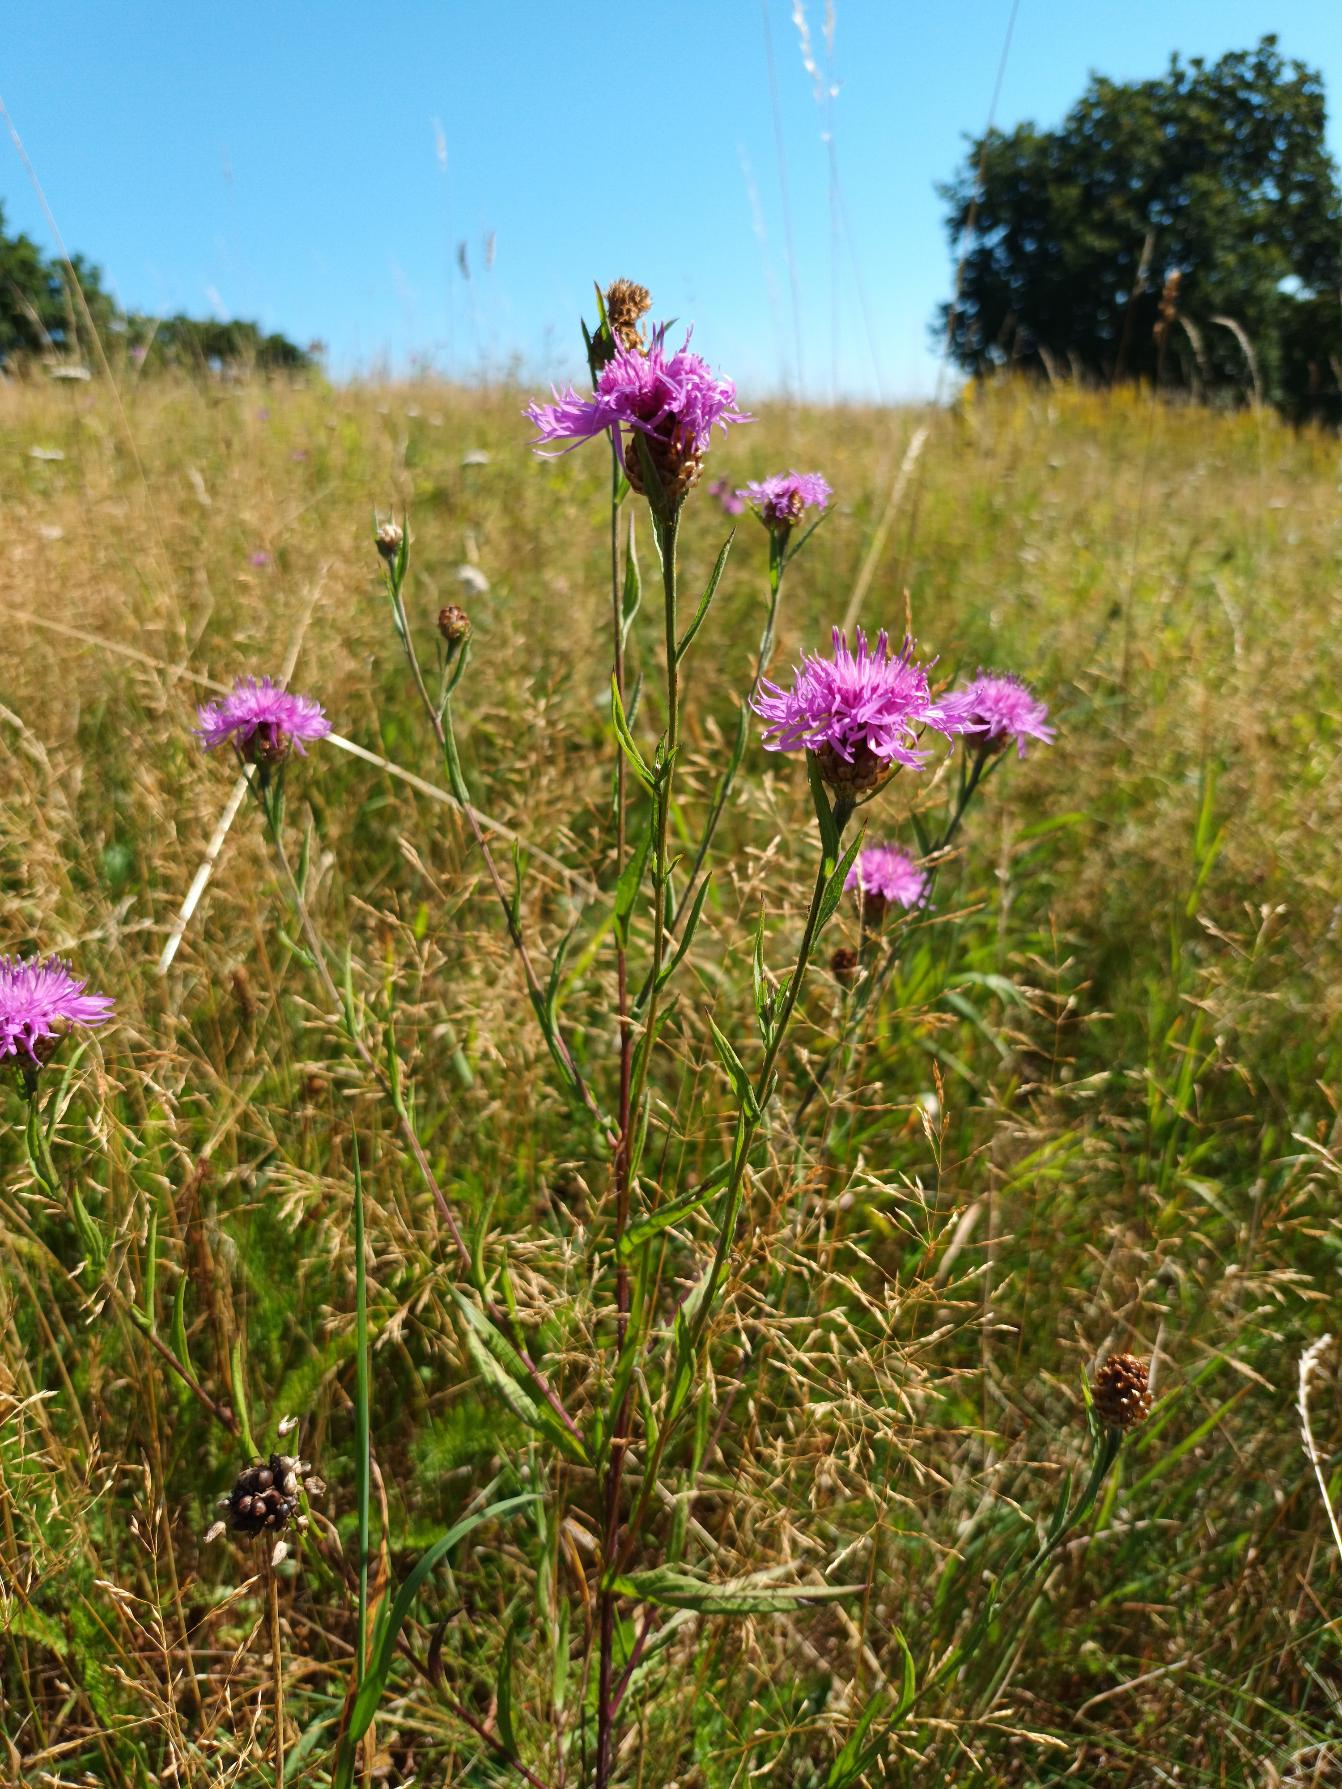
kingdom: Plantae
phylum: Tracheophyta
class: Magnoliopsida
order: Asterales
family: Asteraceae
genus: Centaurea
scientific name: Centaurea jacea
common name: Almindelig knopurt
